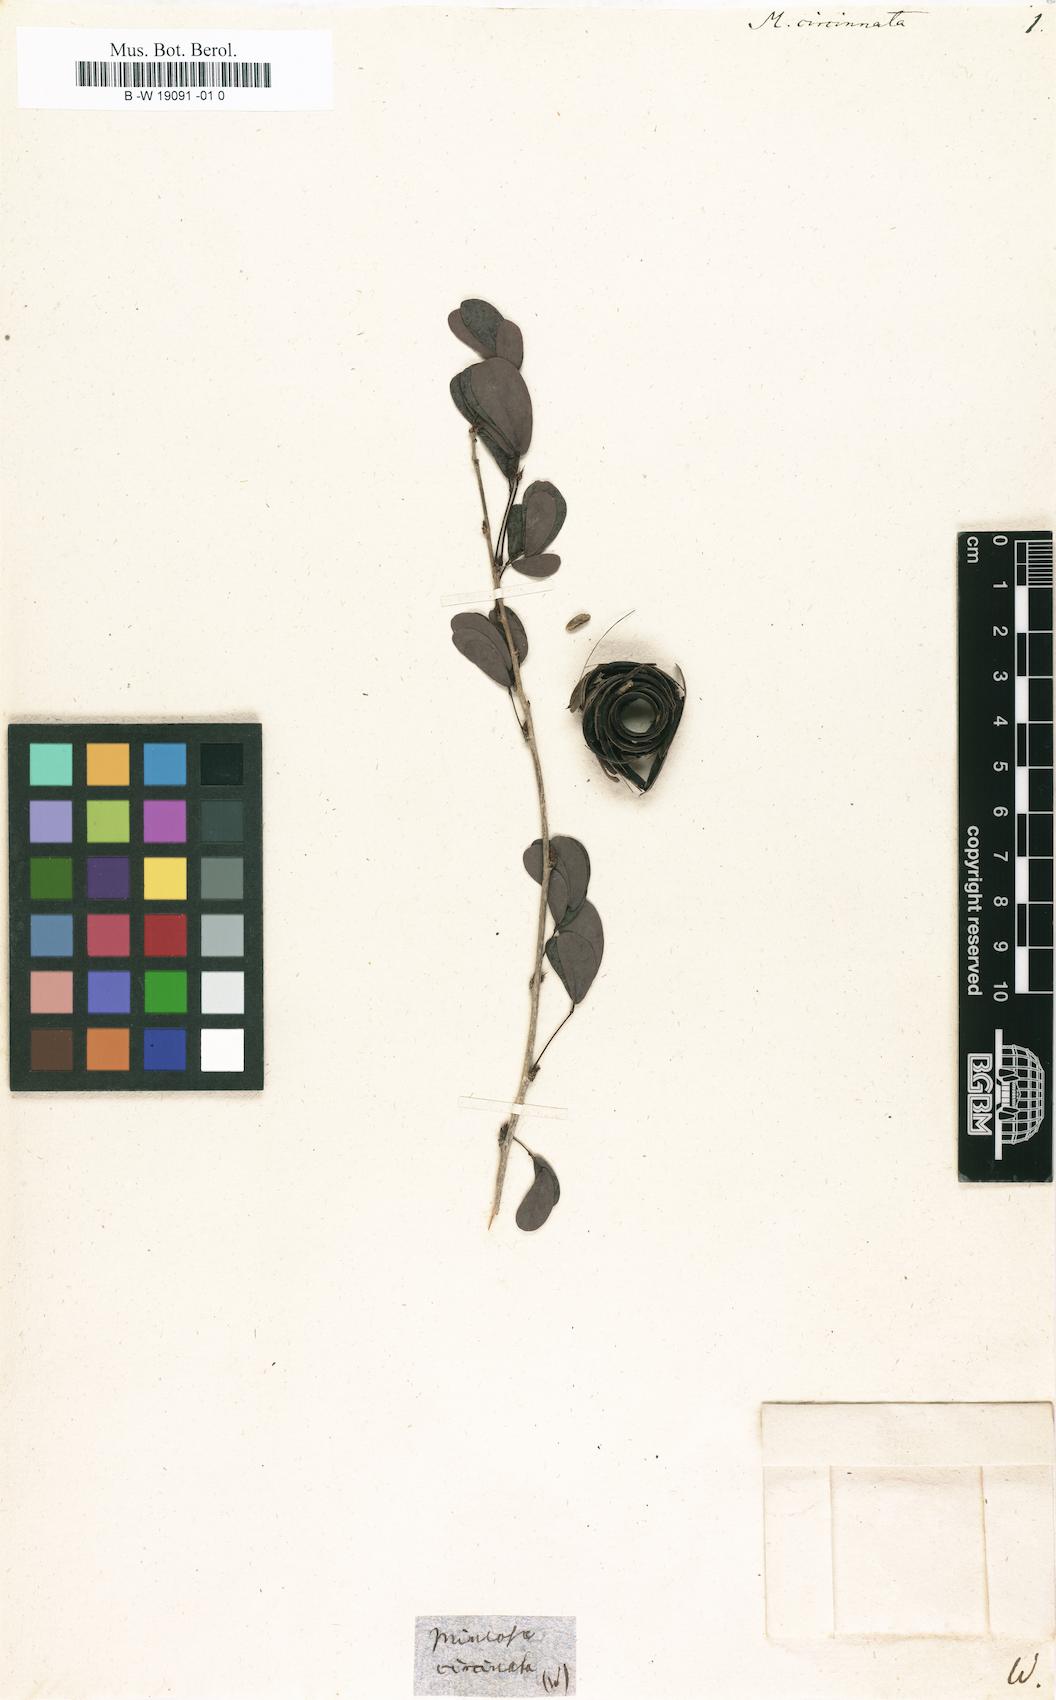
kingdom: Plantae
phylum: Tracheophyta
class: Magnoliopsida
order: Fabales
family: Fabaceae
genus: Inga
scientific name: Inga alternifolia
